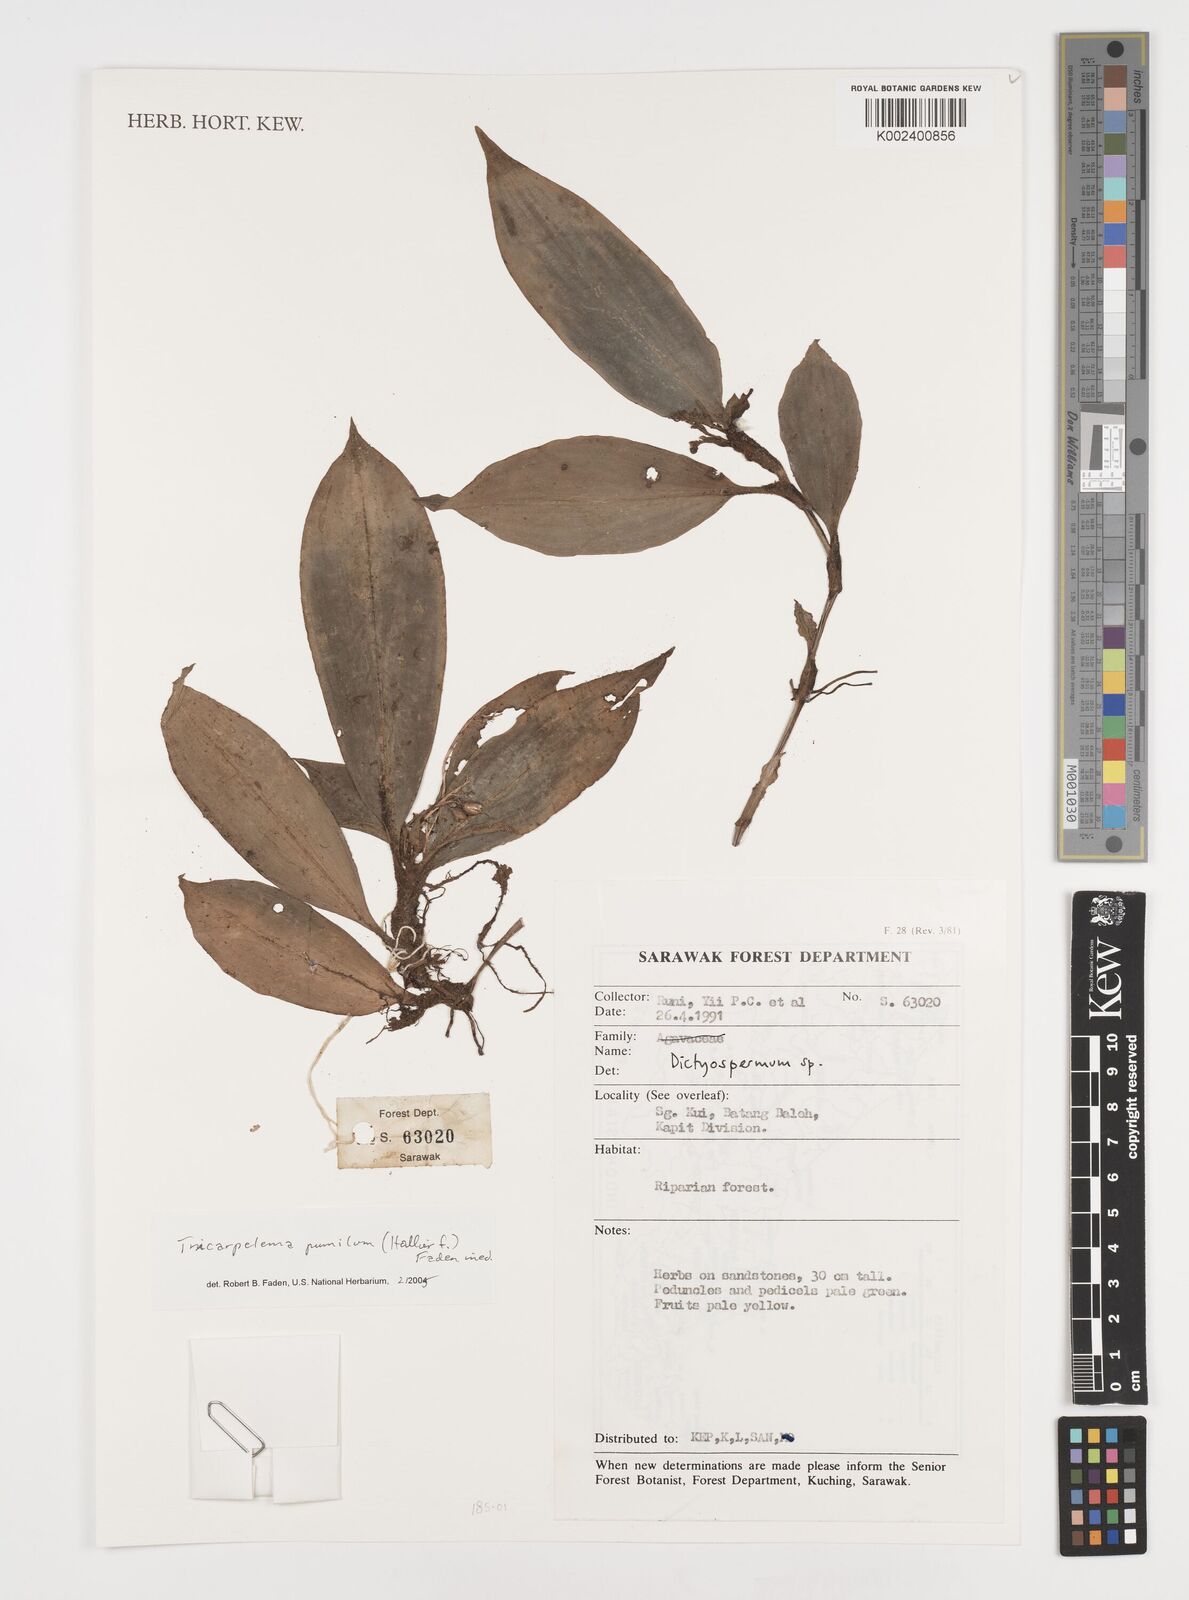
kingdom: Plantae
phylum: Tracheophyta
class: Liliopsida
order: Commelinales
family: Commelinaceae
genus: Tricarpelema
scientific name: Tricarpelema pumilum
